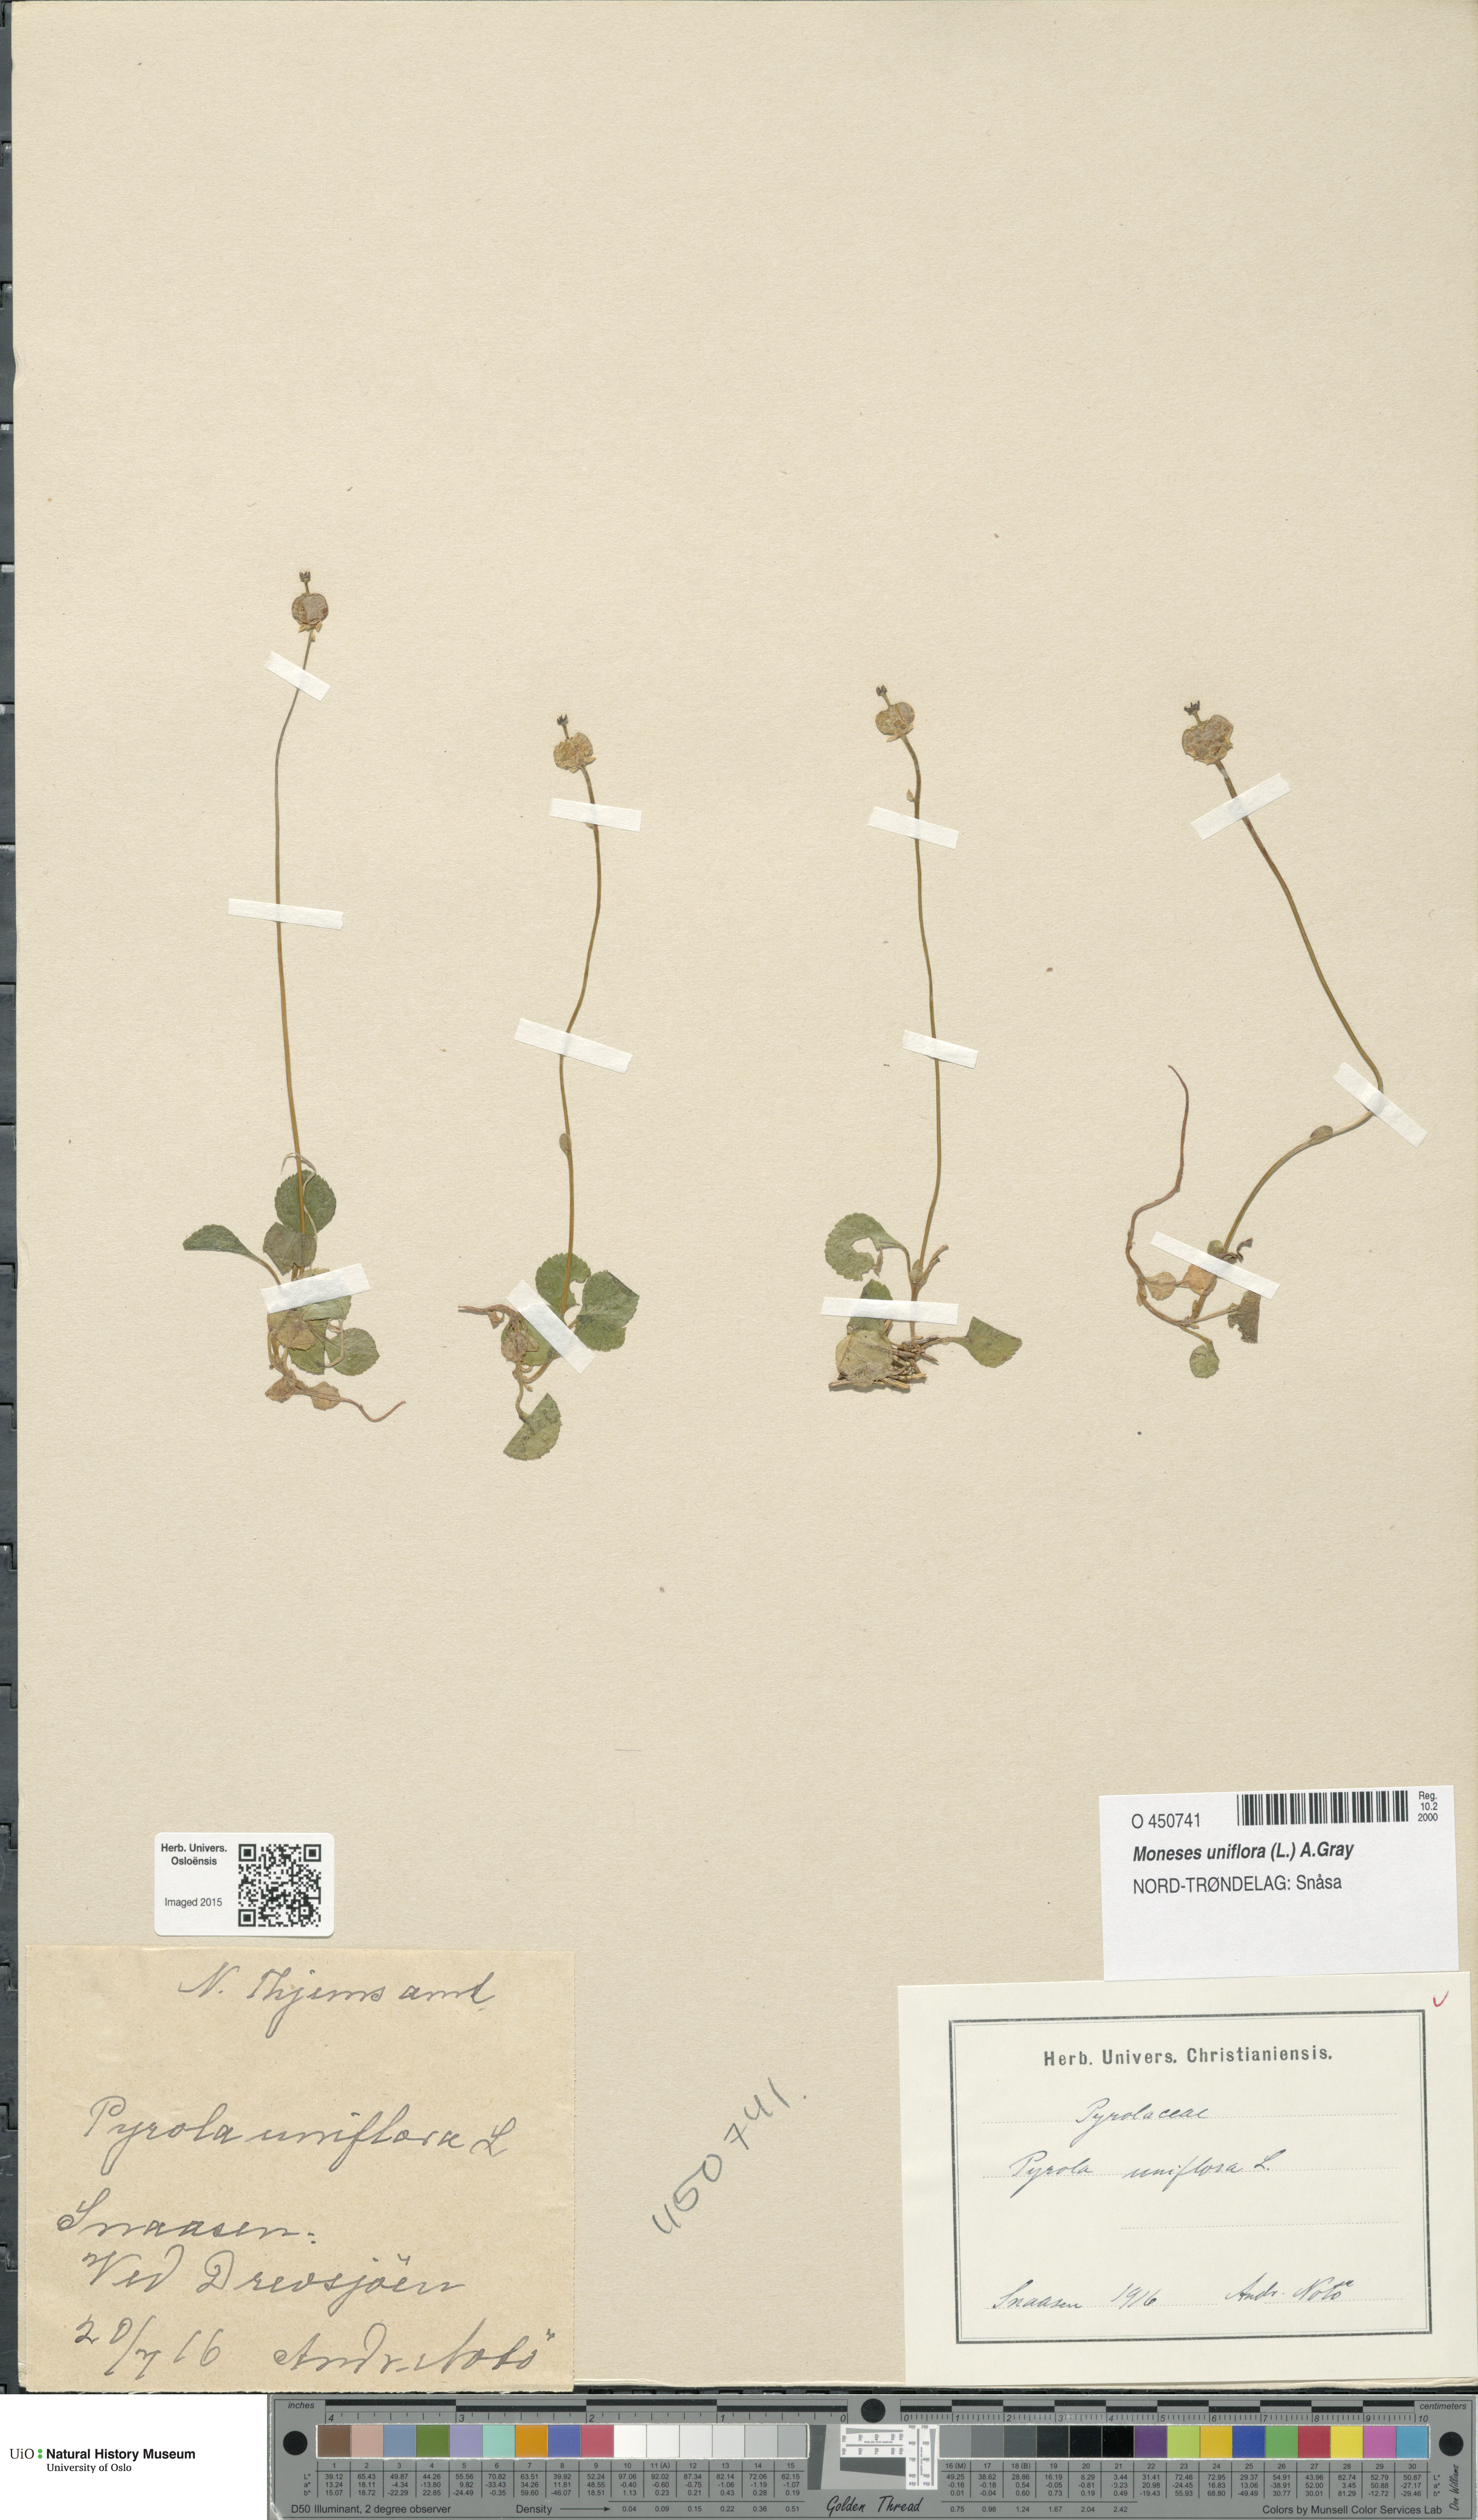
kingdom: Plantae
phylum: Tracheophyta
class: Magnoliopsida
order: Ericales
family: Ericaceae
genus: Moneses
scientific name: Moneses uniflora
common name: One-flowered wintergreen
